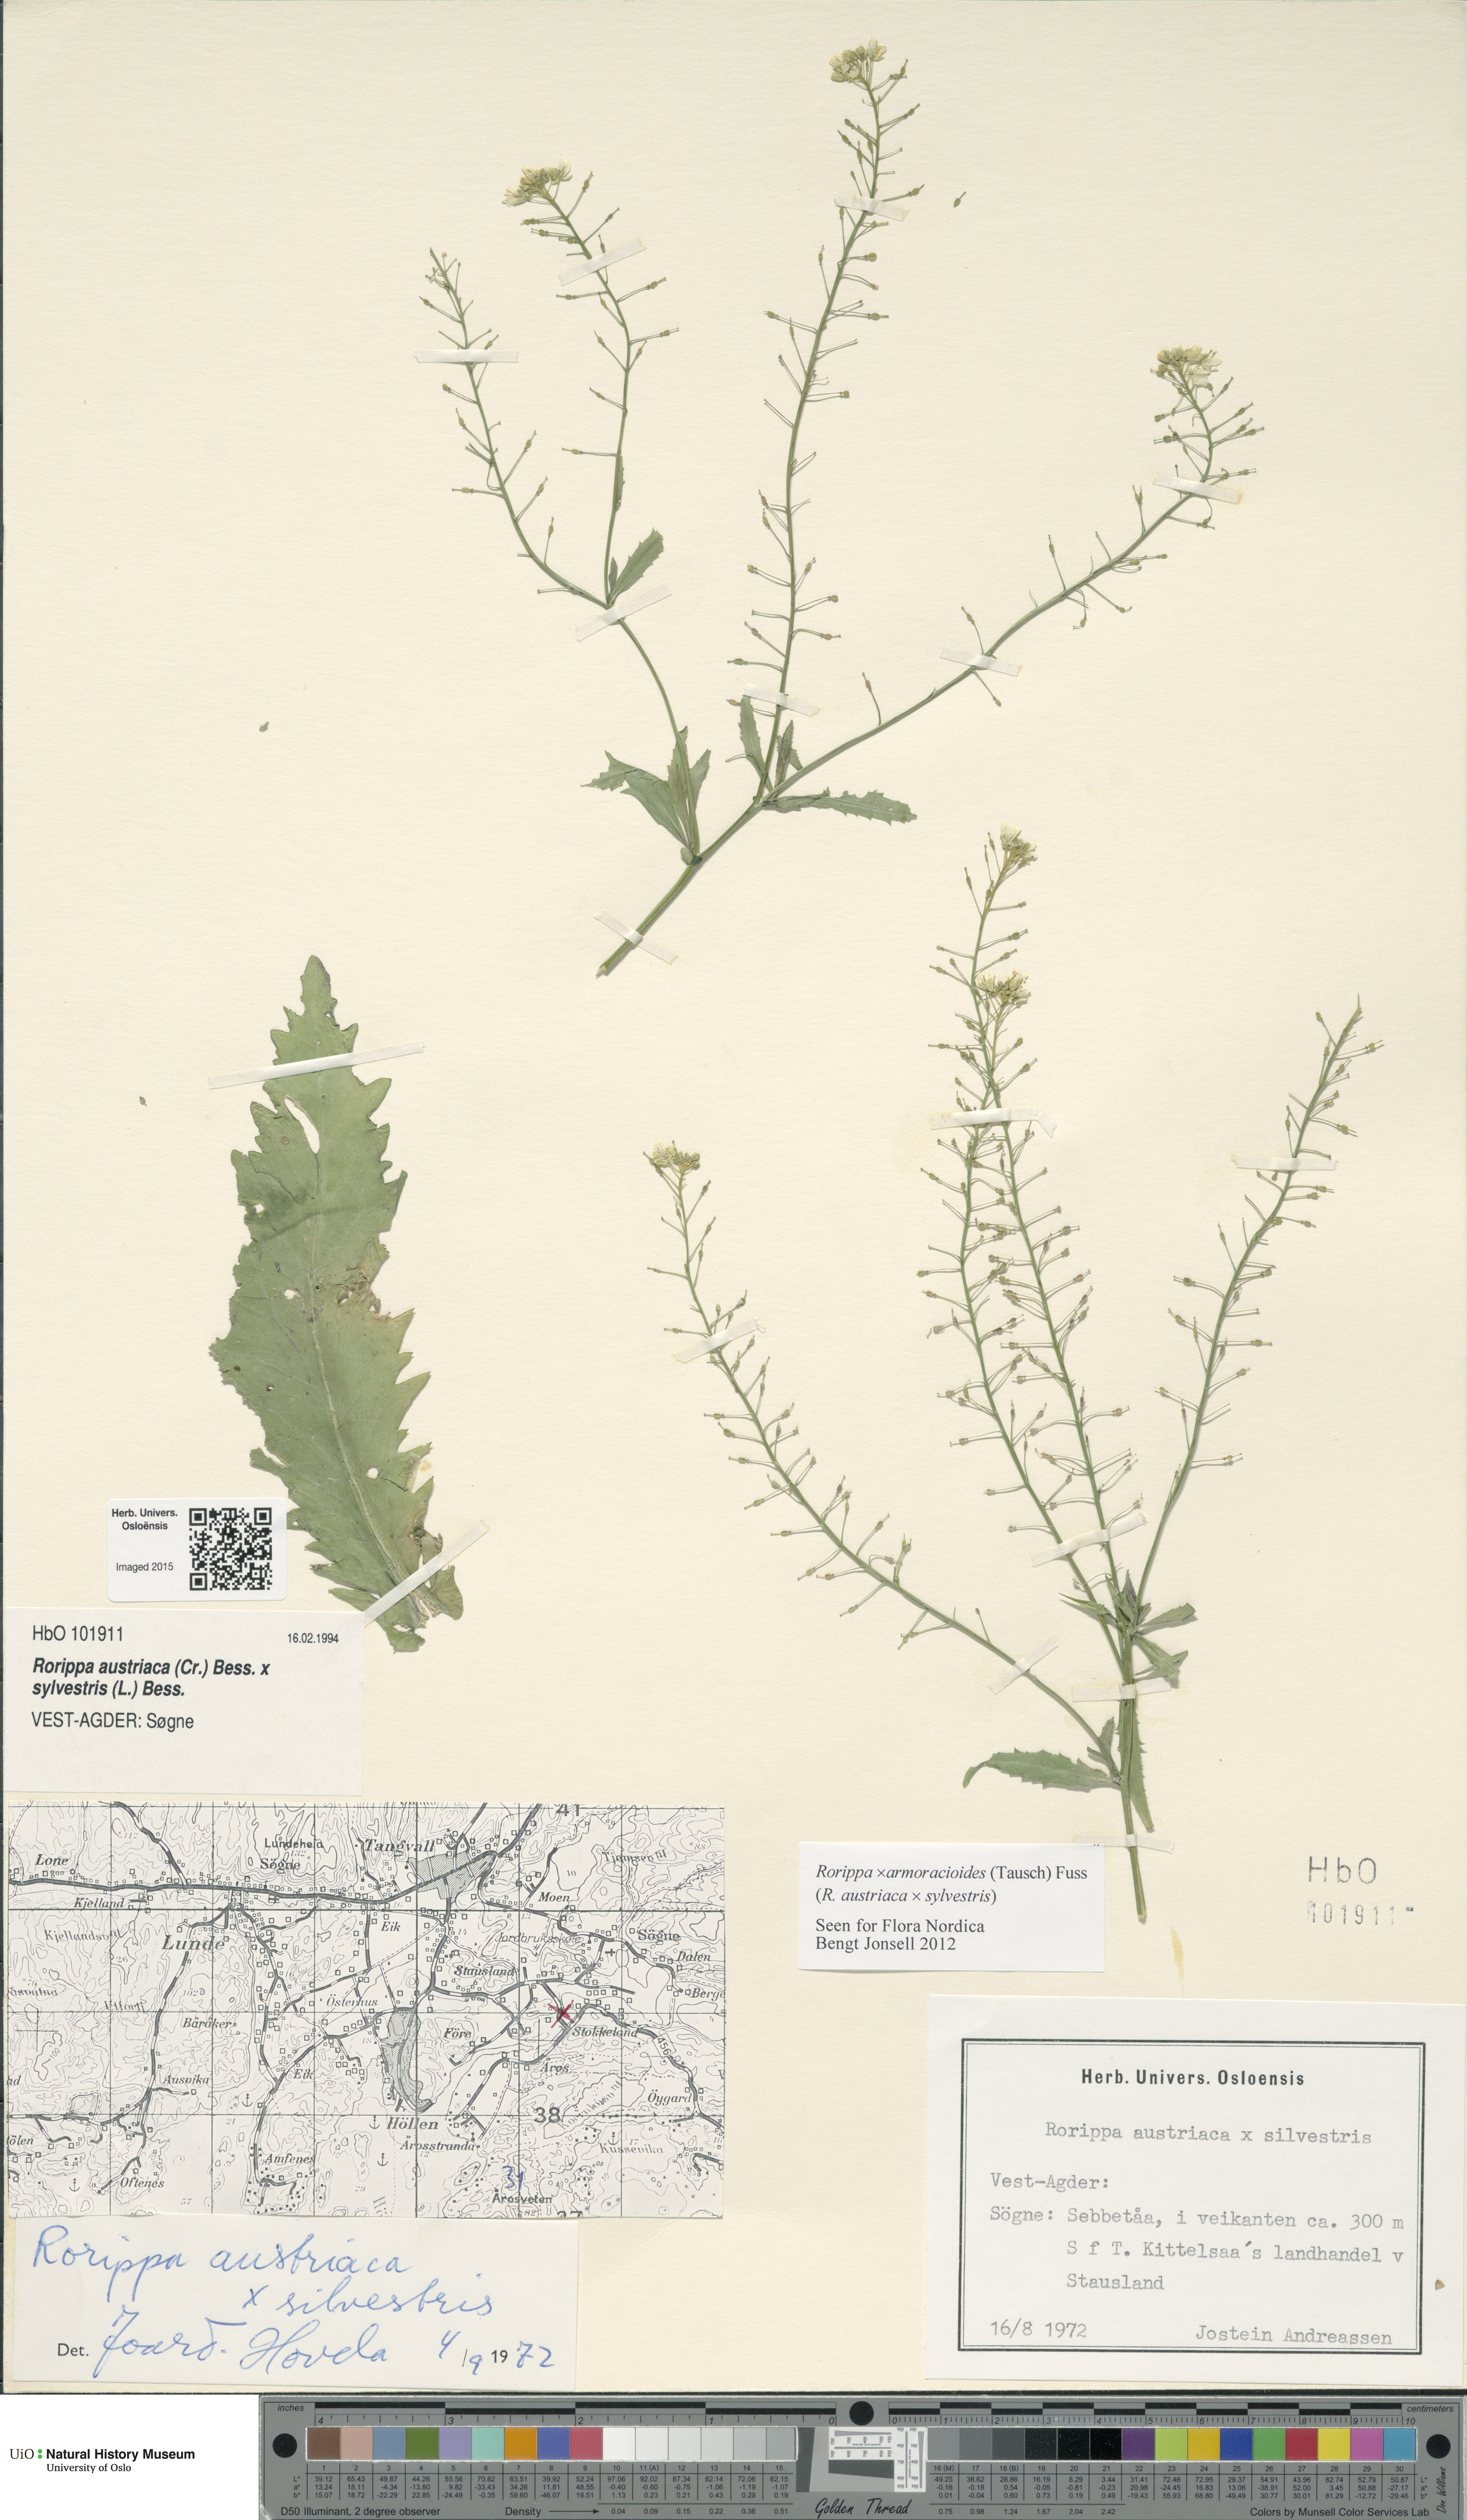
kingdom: Plantae
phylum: Tracheophyta
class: Magnoliopsida
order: Brassicales
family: Brassicaceae
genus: Rorippa
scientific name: Rorippa
